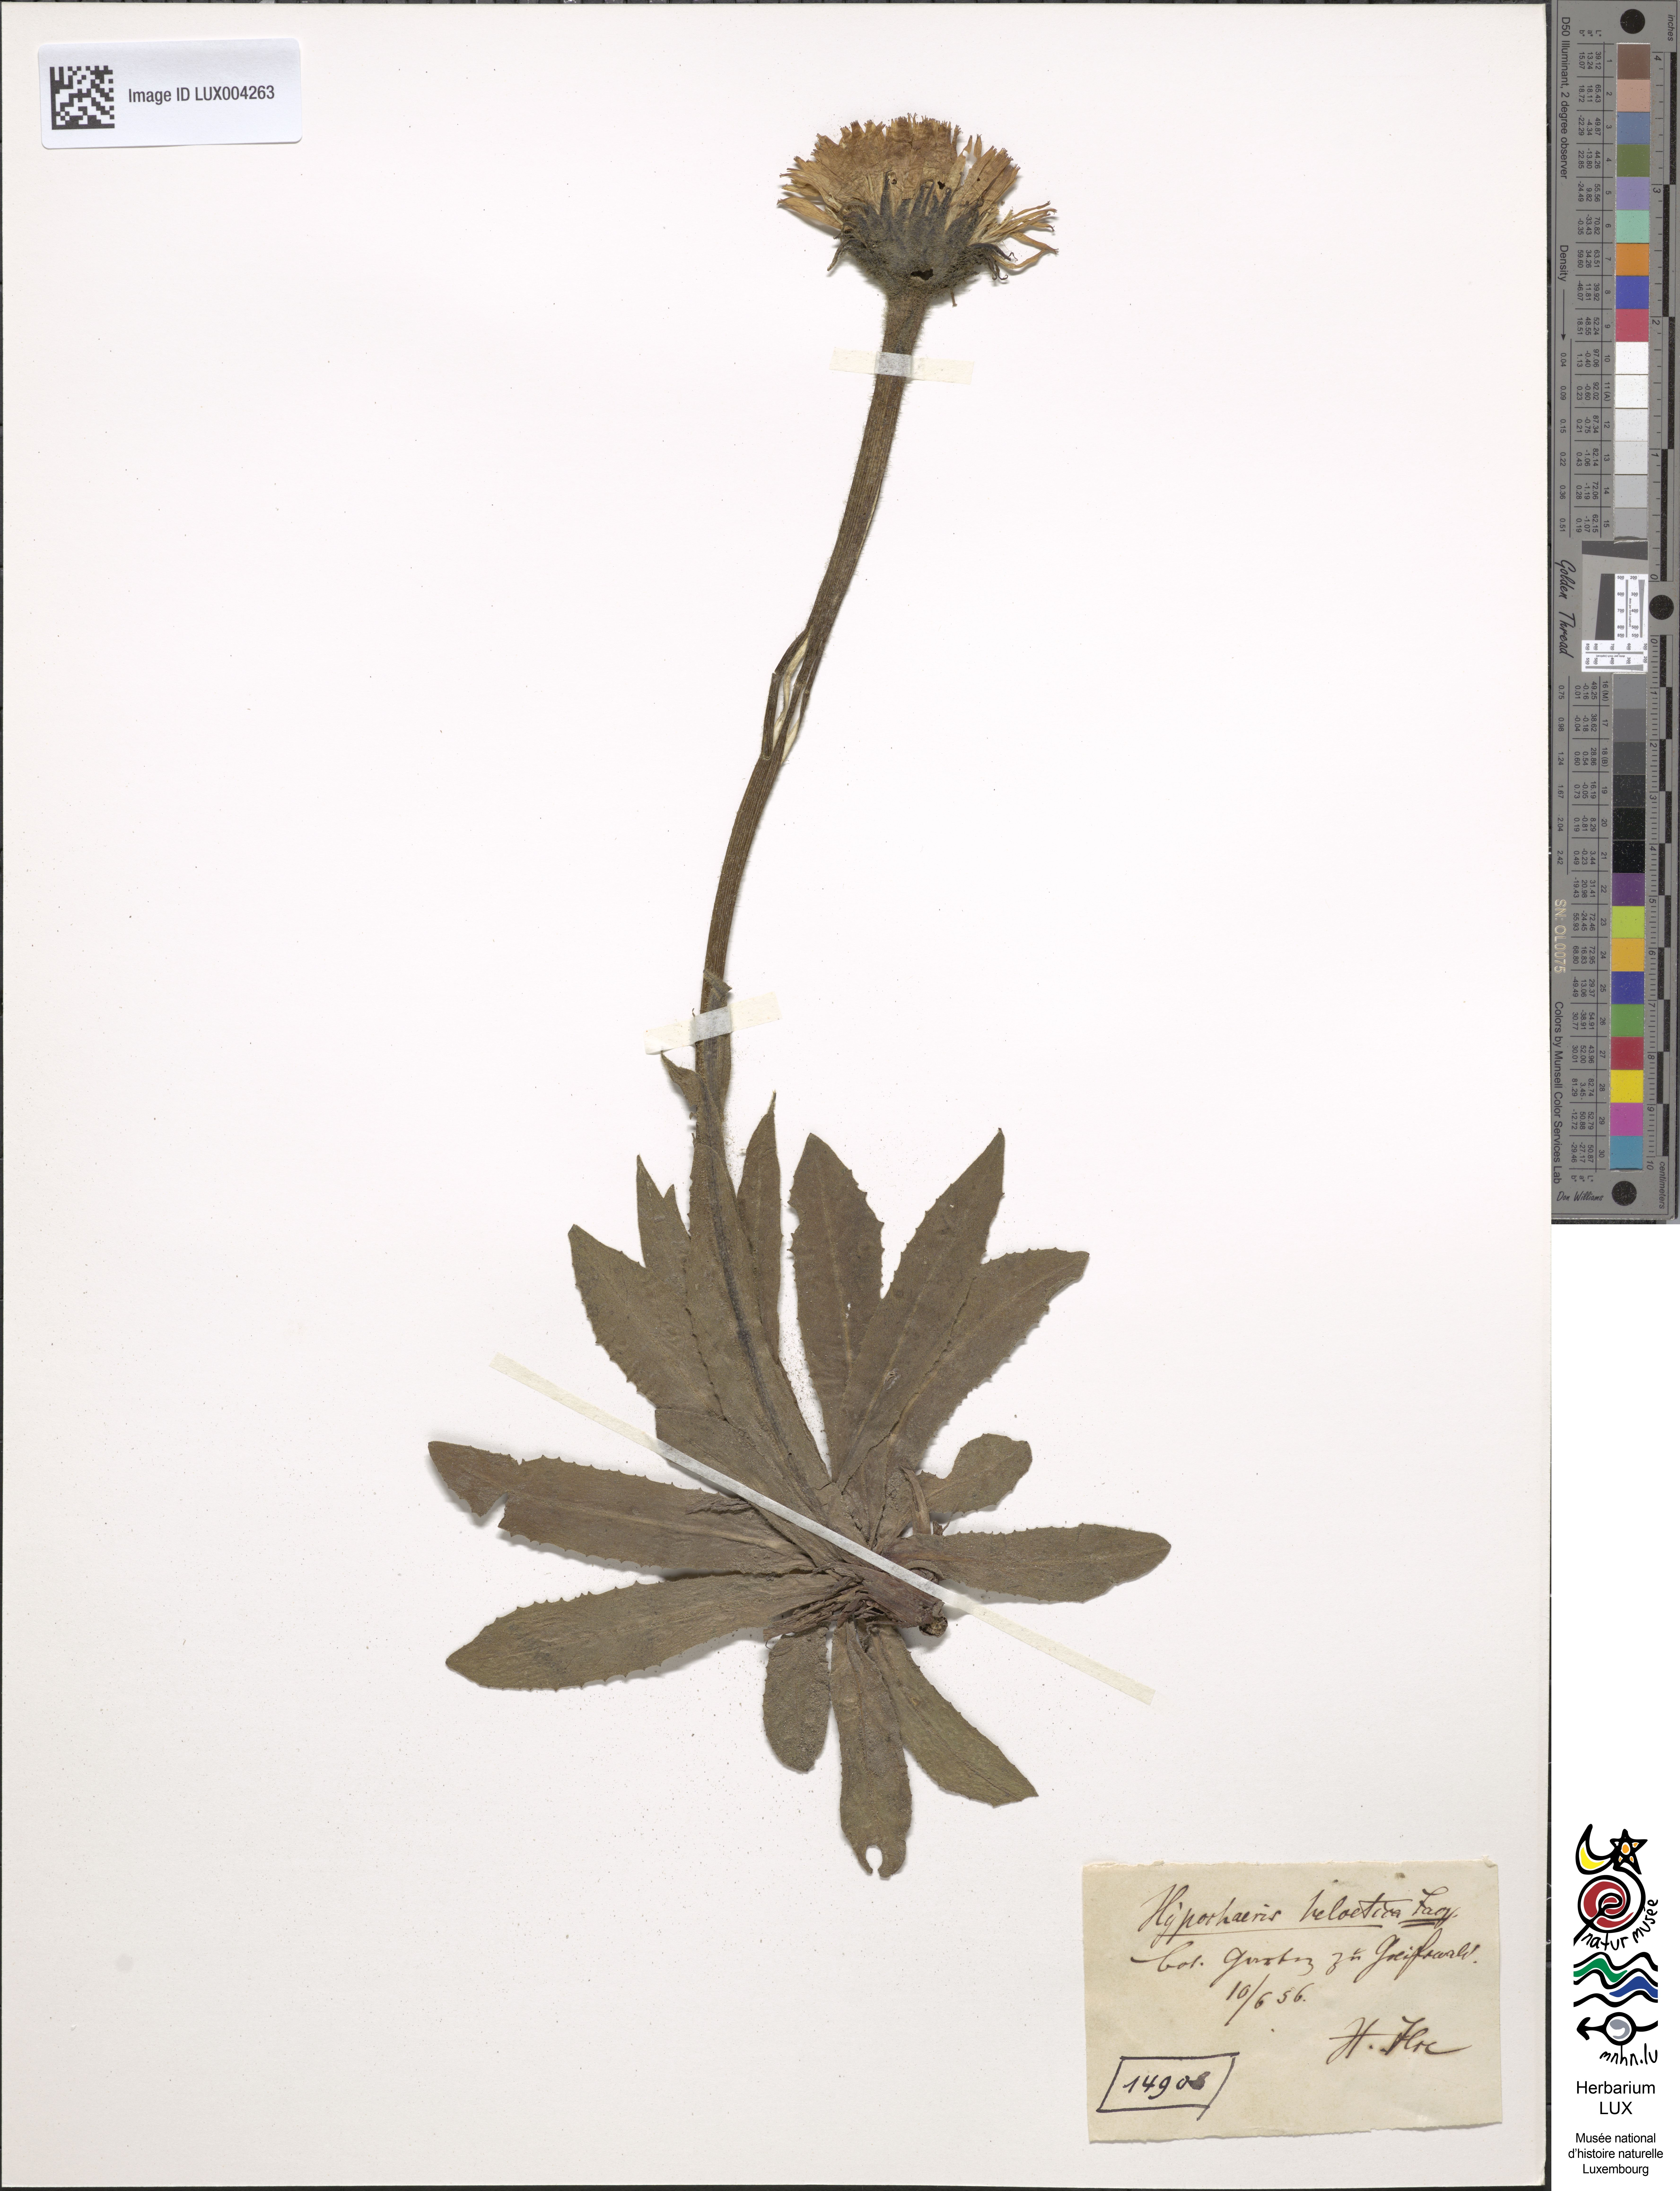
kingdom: Plantae
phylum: Tracheophyta
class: Magnoliopsida
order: Asterales
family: Asteraceae
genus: Hypochoeris
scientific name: Hypochoeris
